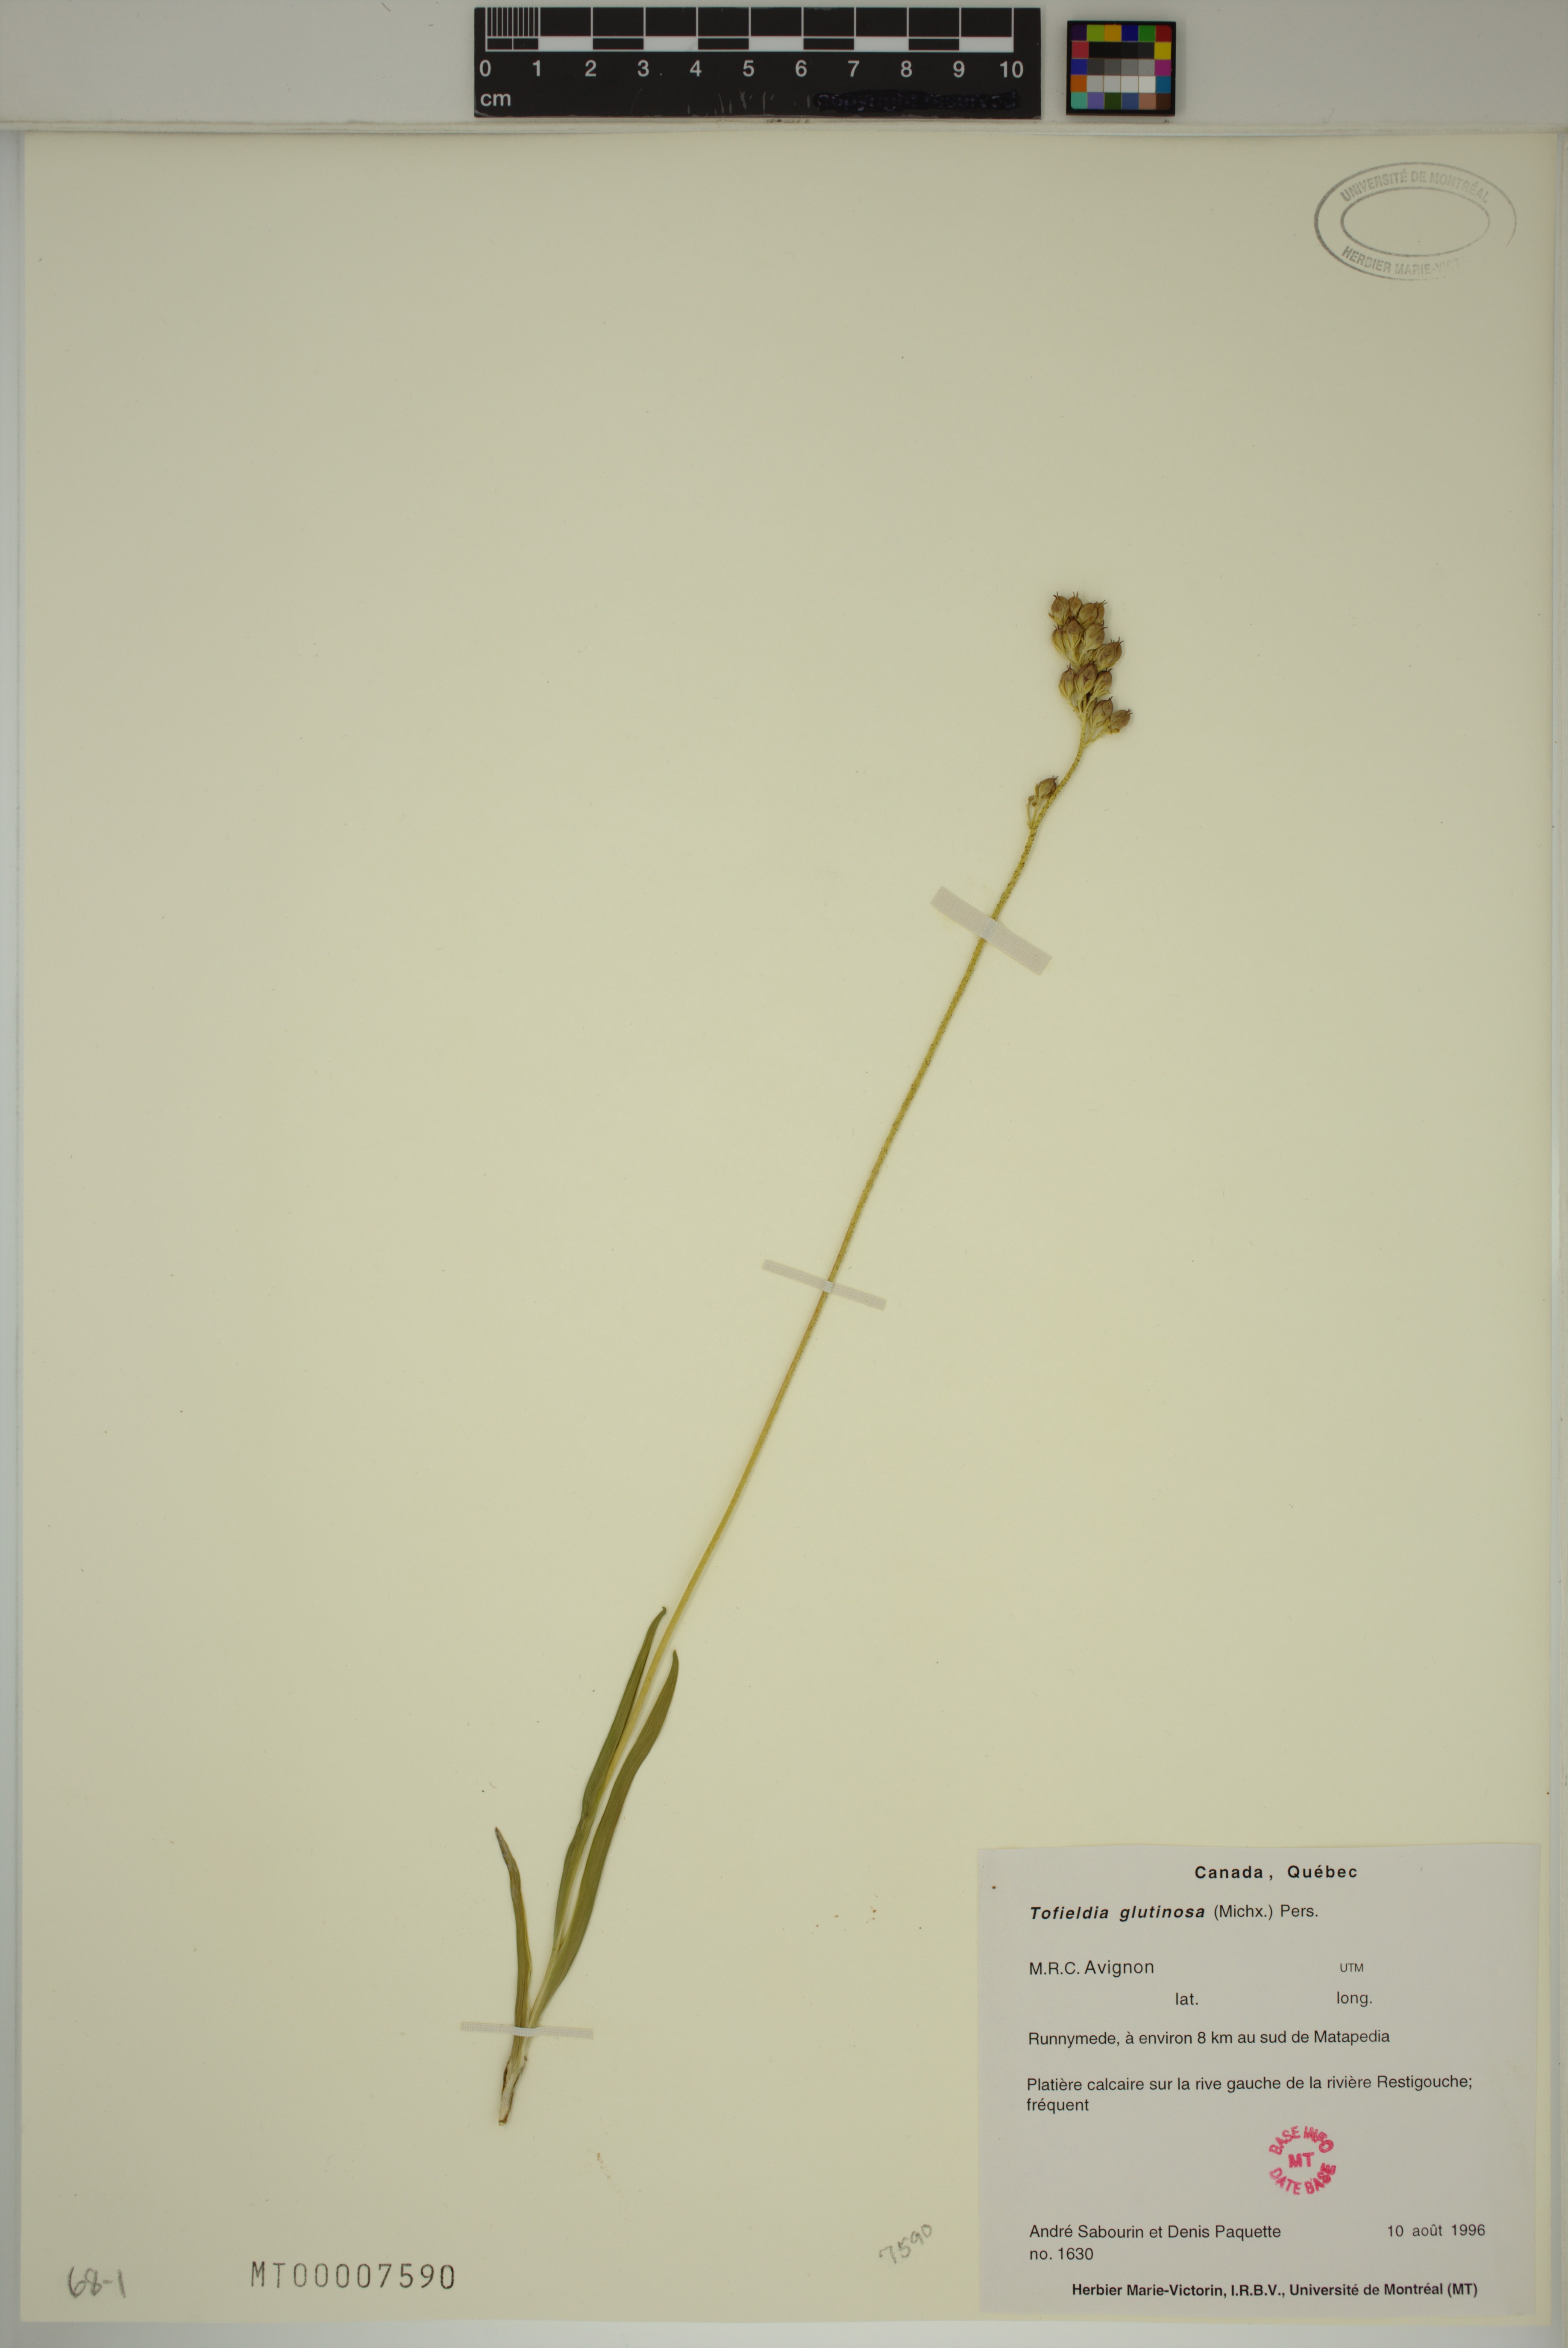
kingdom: Plantae
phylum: Tracheophyta
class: Liliopsida
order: Alismatales
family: Tofieldiaceae
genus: Triantha
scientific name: Triantha glutinosa
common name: Glutinous tofieldia
